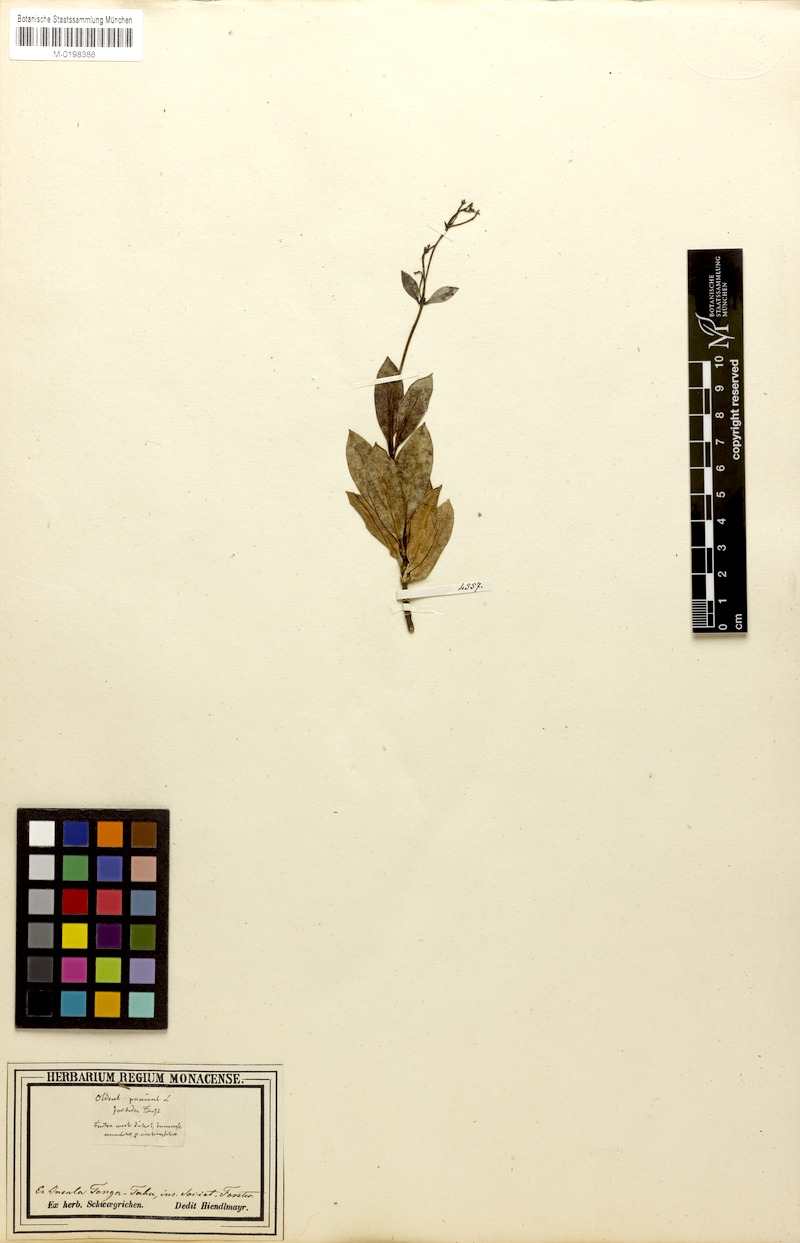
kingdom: Plantae
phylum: Tracheophyta
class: Magnoliopsida
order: Gentianales
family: Rubiaceae
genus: Leptopetalum
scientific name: Leptopetalum foetidum
